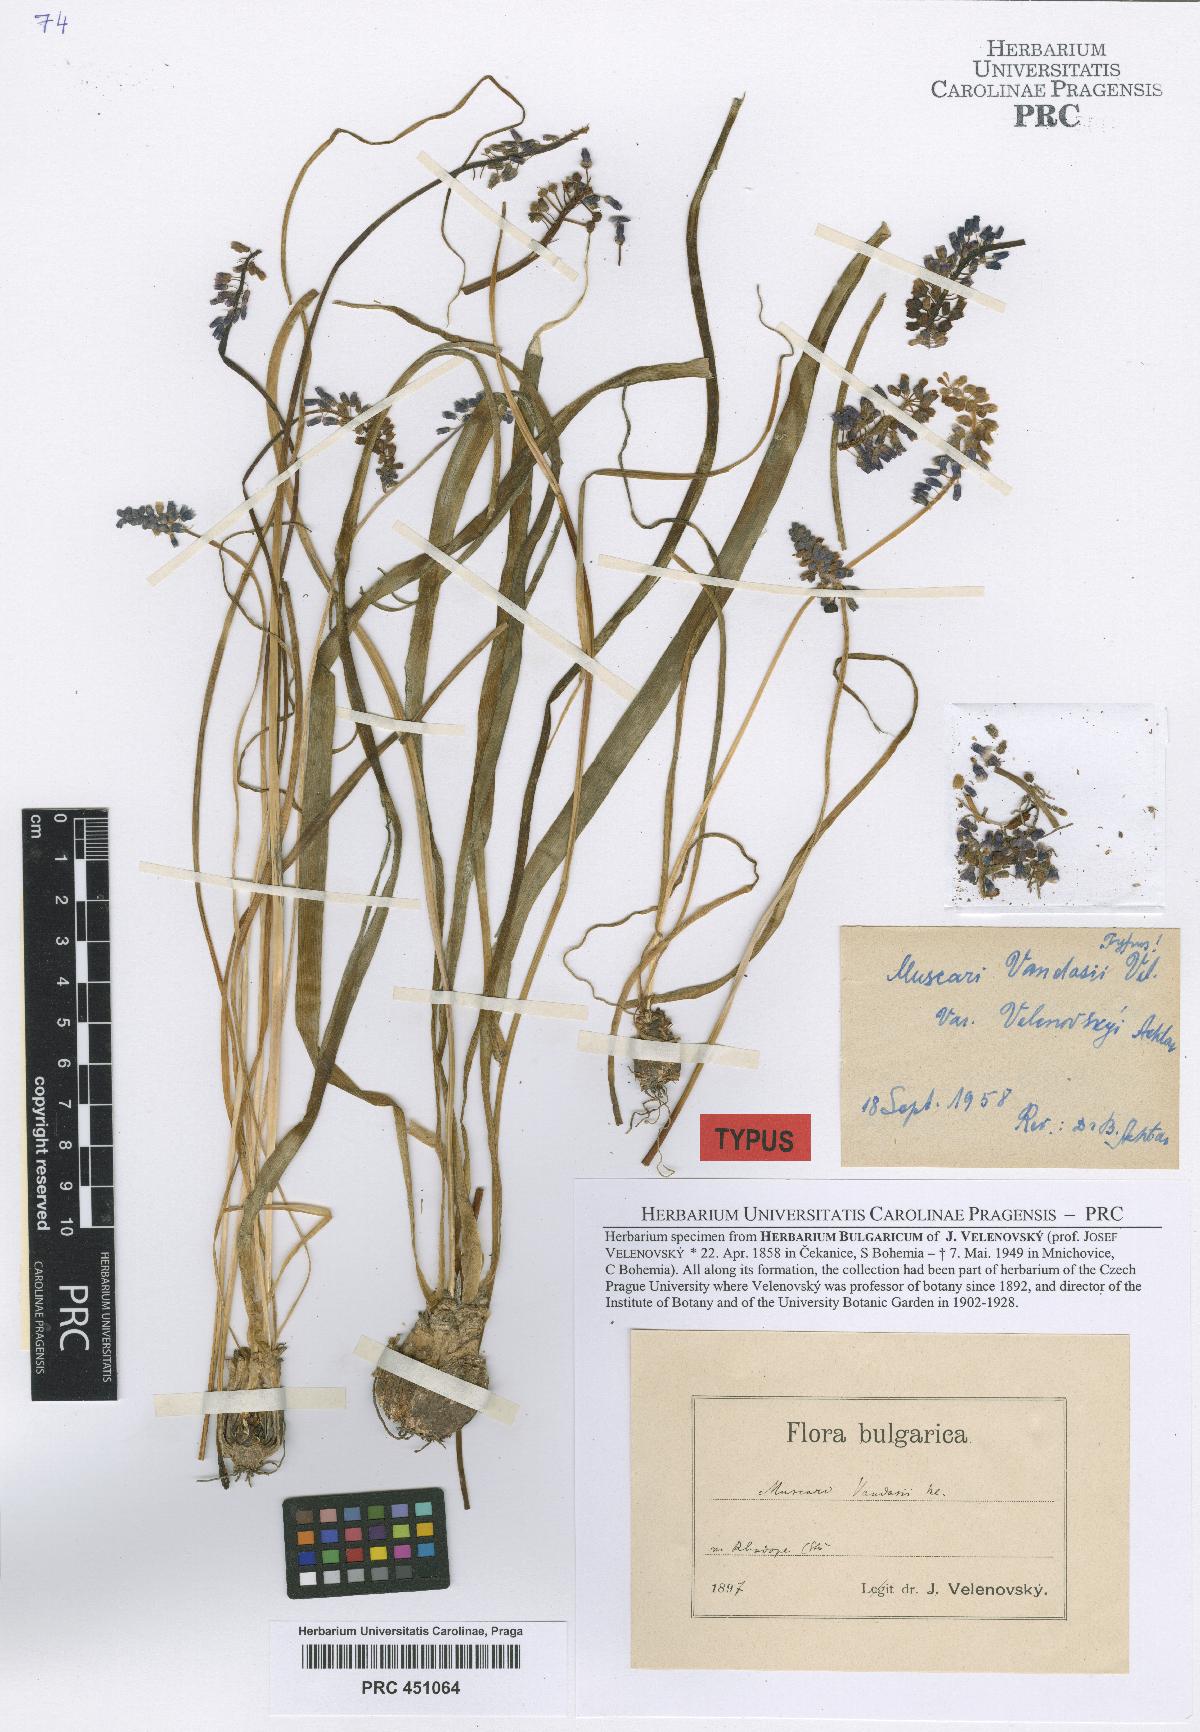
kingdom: Plantae
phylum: Tracheophyta
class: Liliopsida
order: Asparagales
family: Asparagaceae
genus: Muscari
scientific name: Muscari neglectum
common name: Grape-hyacinth
